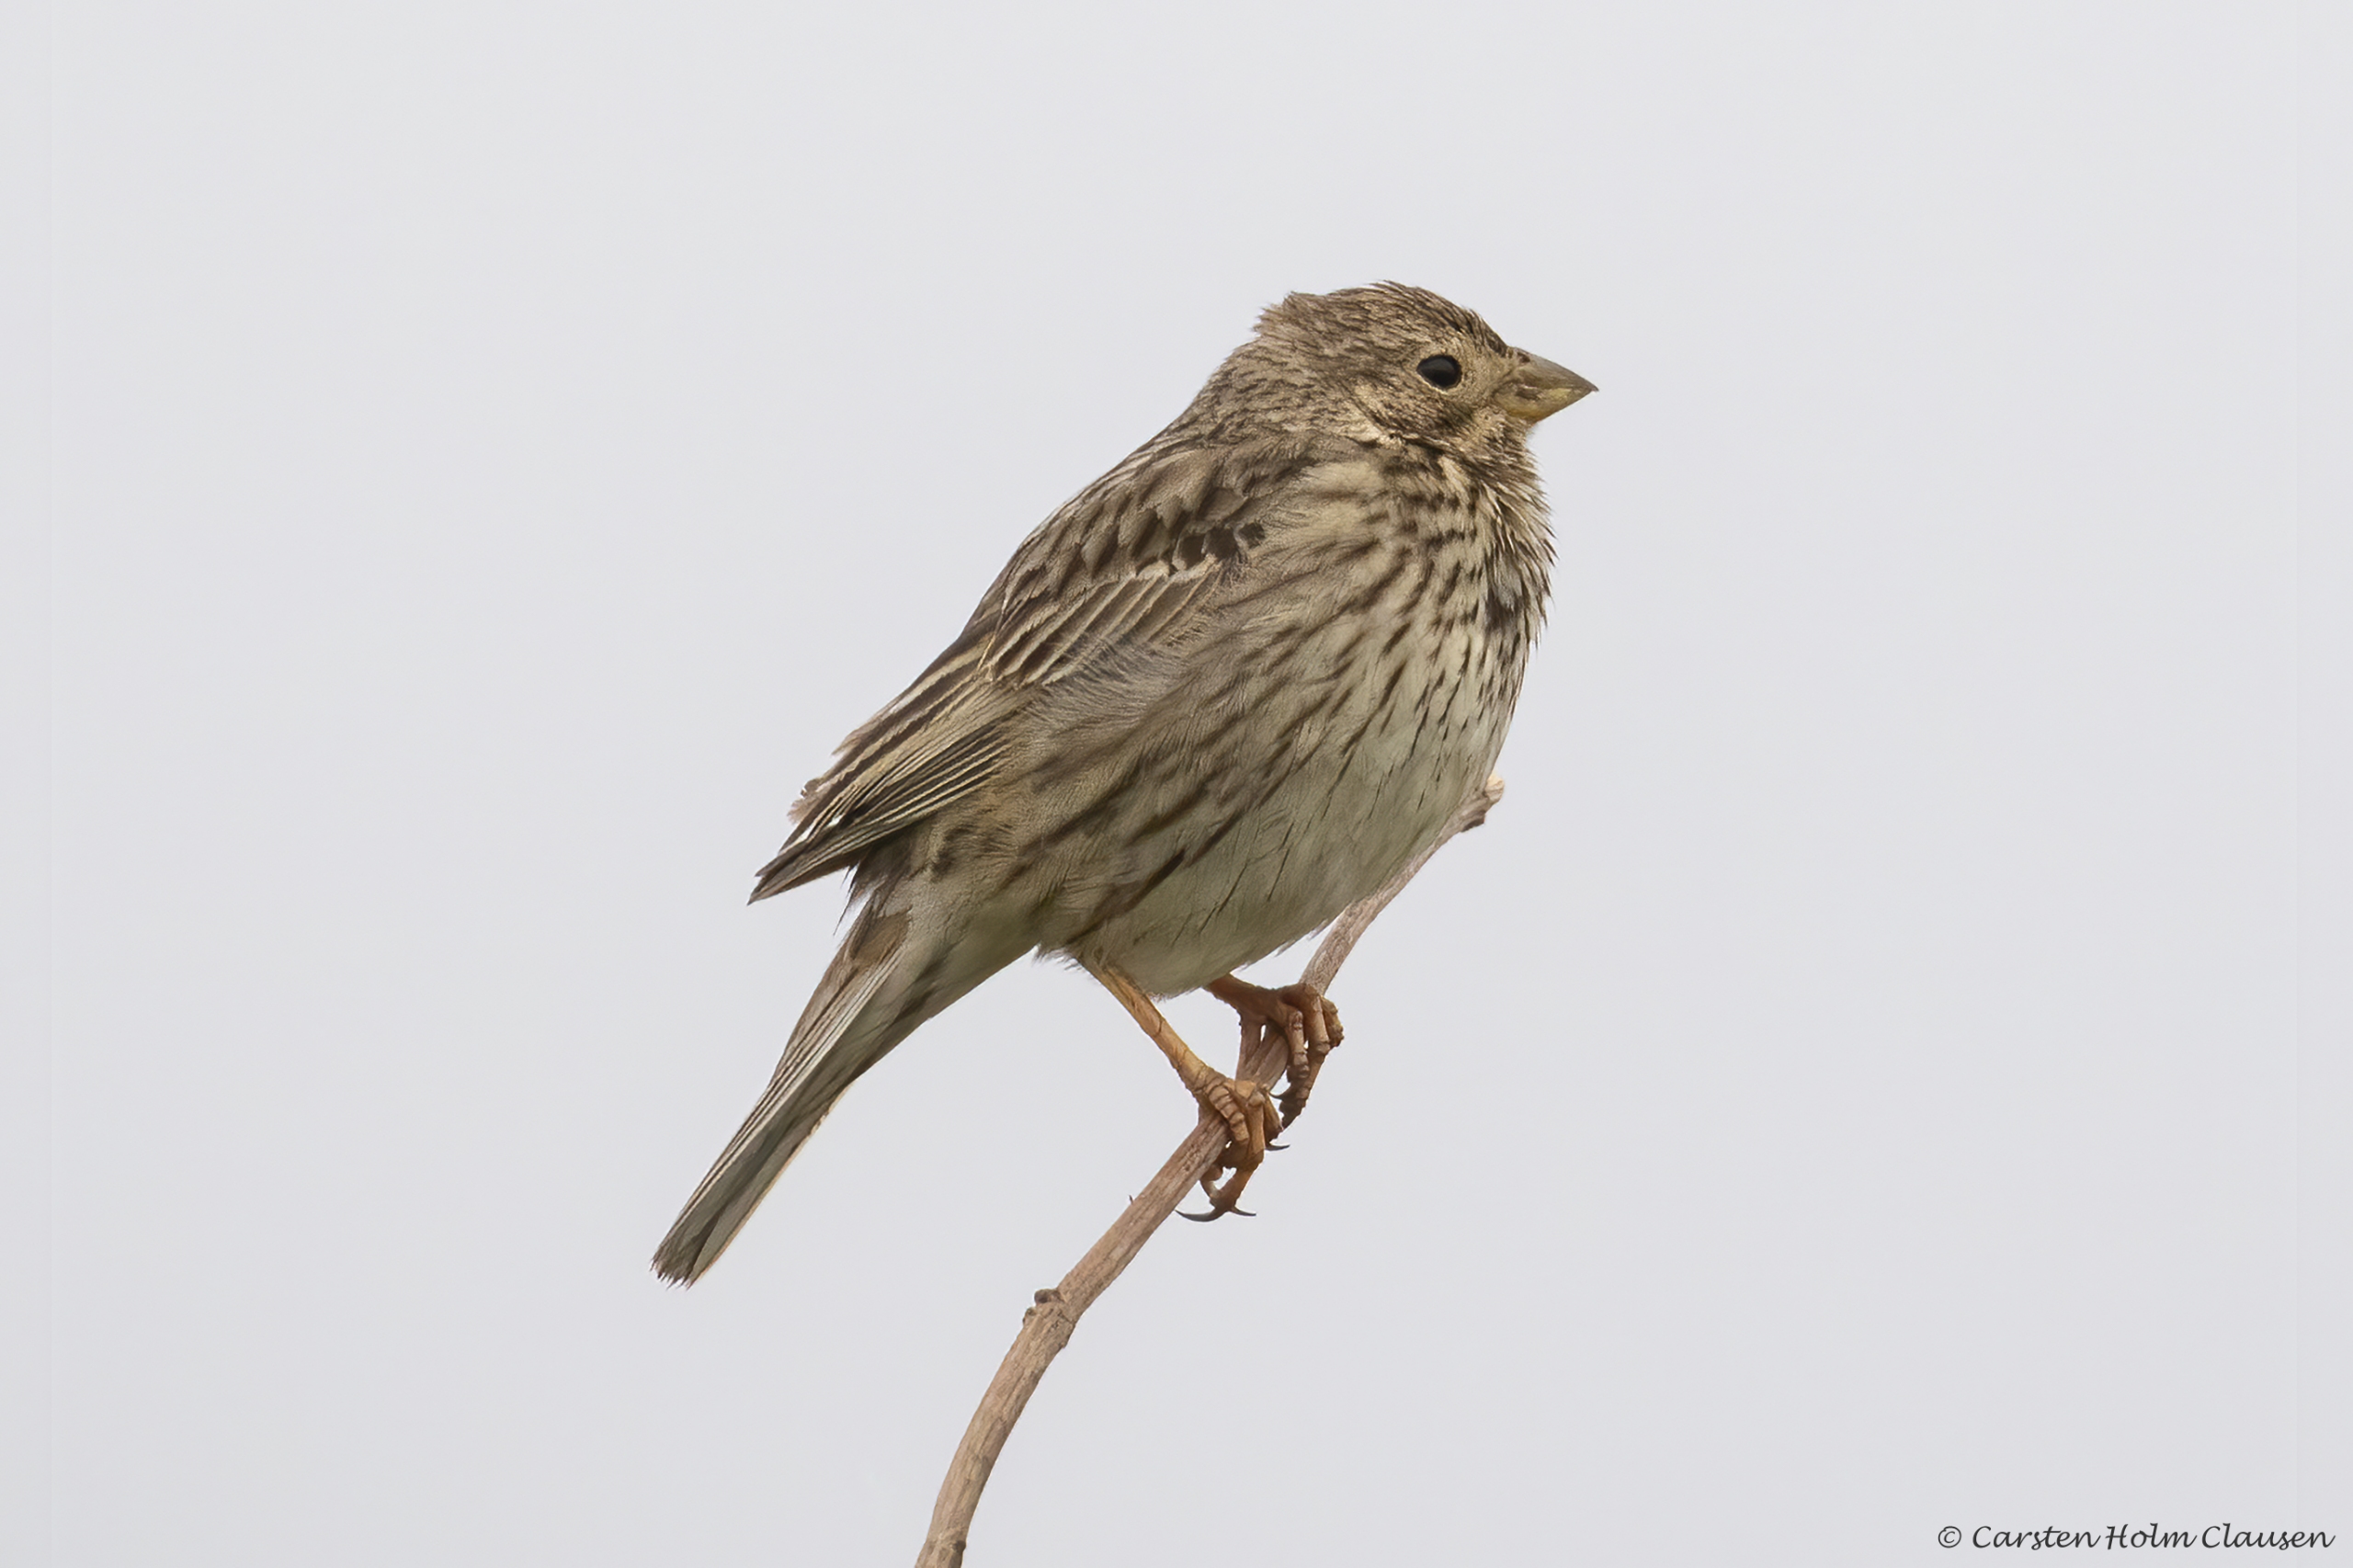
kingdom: Animalia
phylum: Chordata
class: Aves
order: Passeriformes
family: Emberizidae
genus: Emberiza
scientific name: Emberiza calandra
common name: Bomlærke
